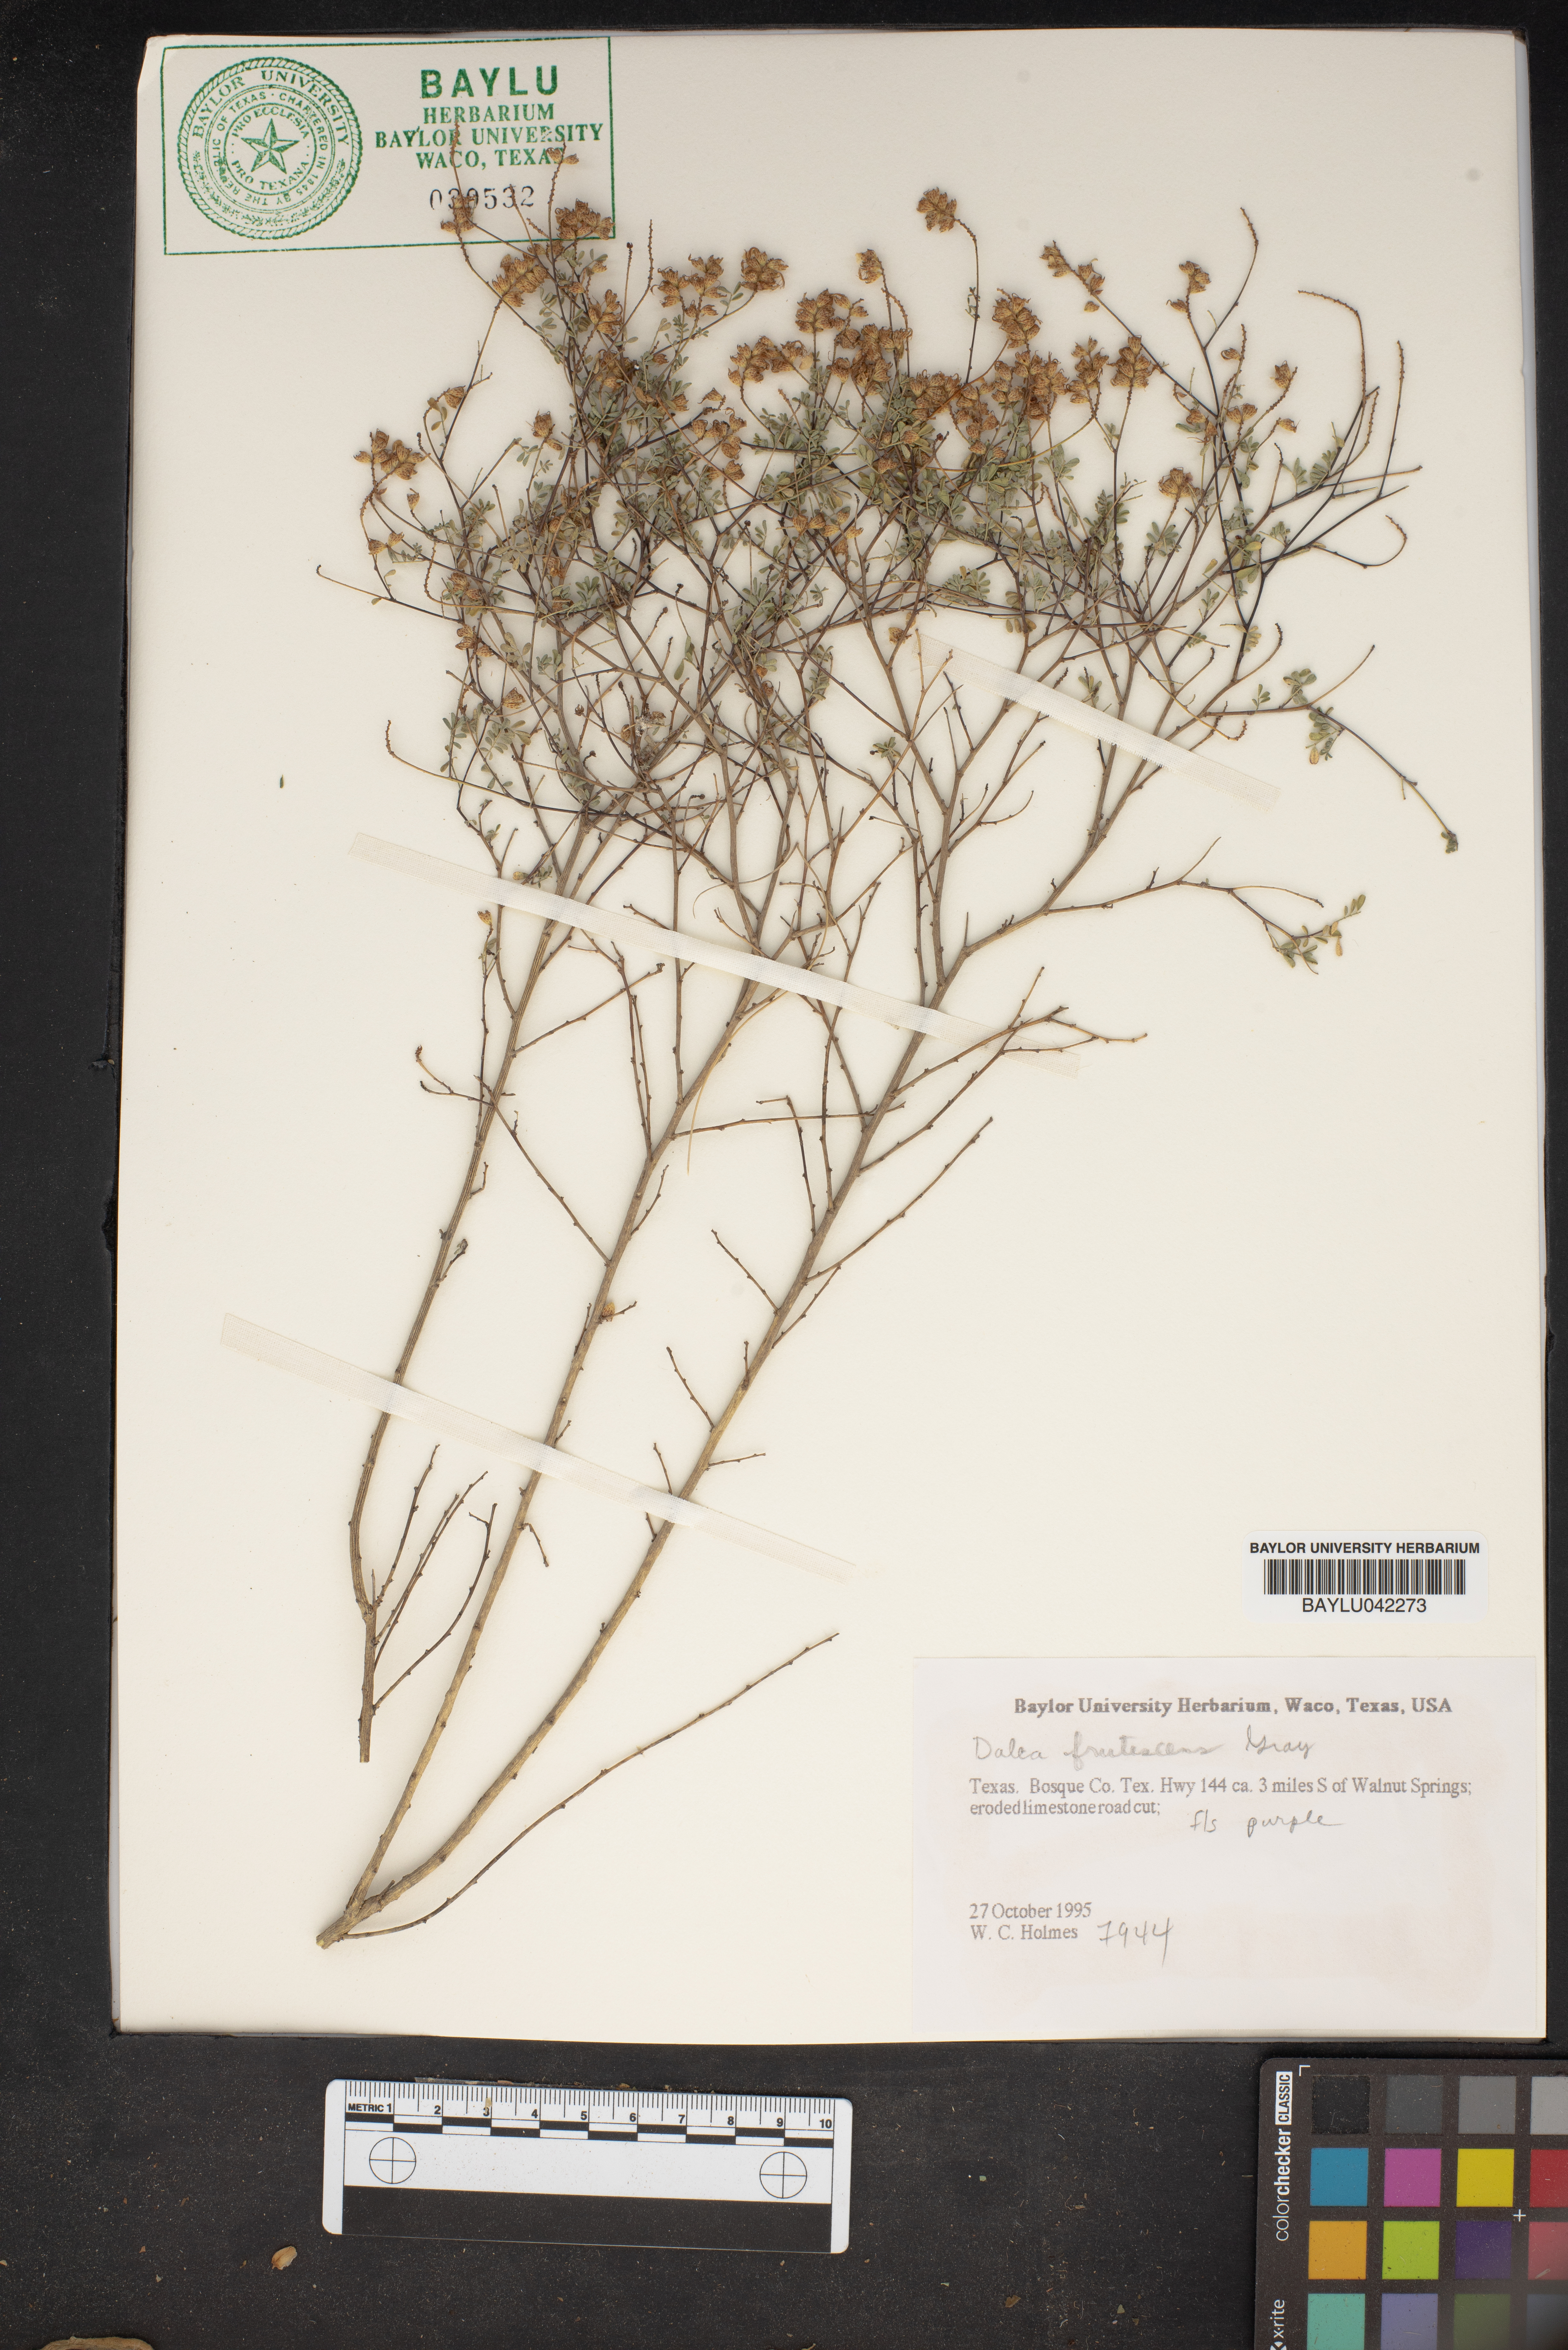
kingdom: Plantae
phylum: Tracheophyta
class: Magnoliopsida
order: Fabales
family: Fabaceae
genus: Dalea
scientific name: Dalea frutescens
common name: Black dalea
